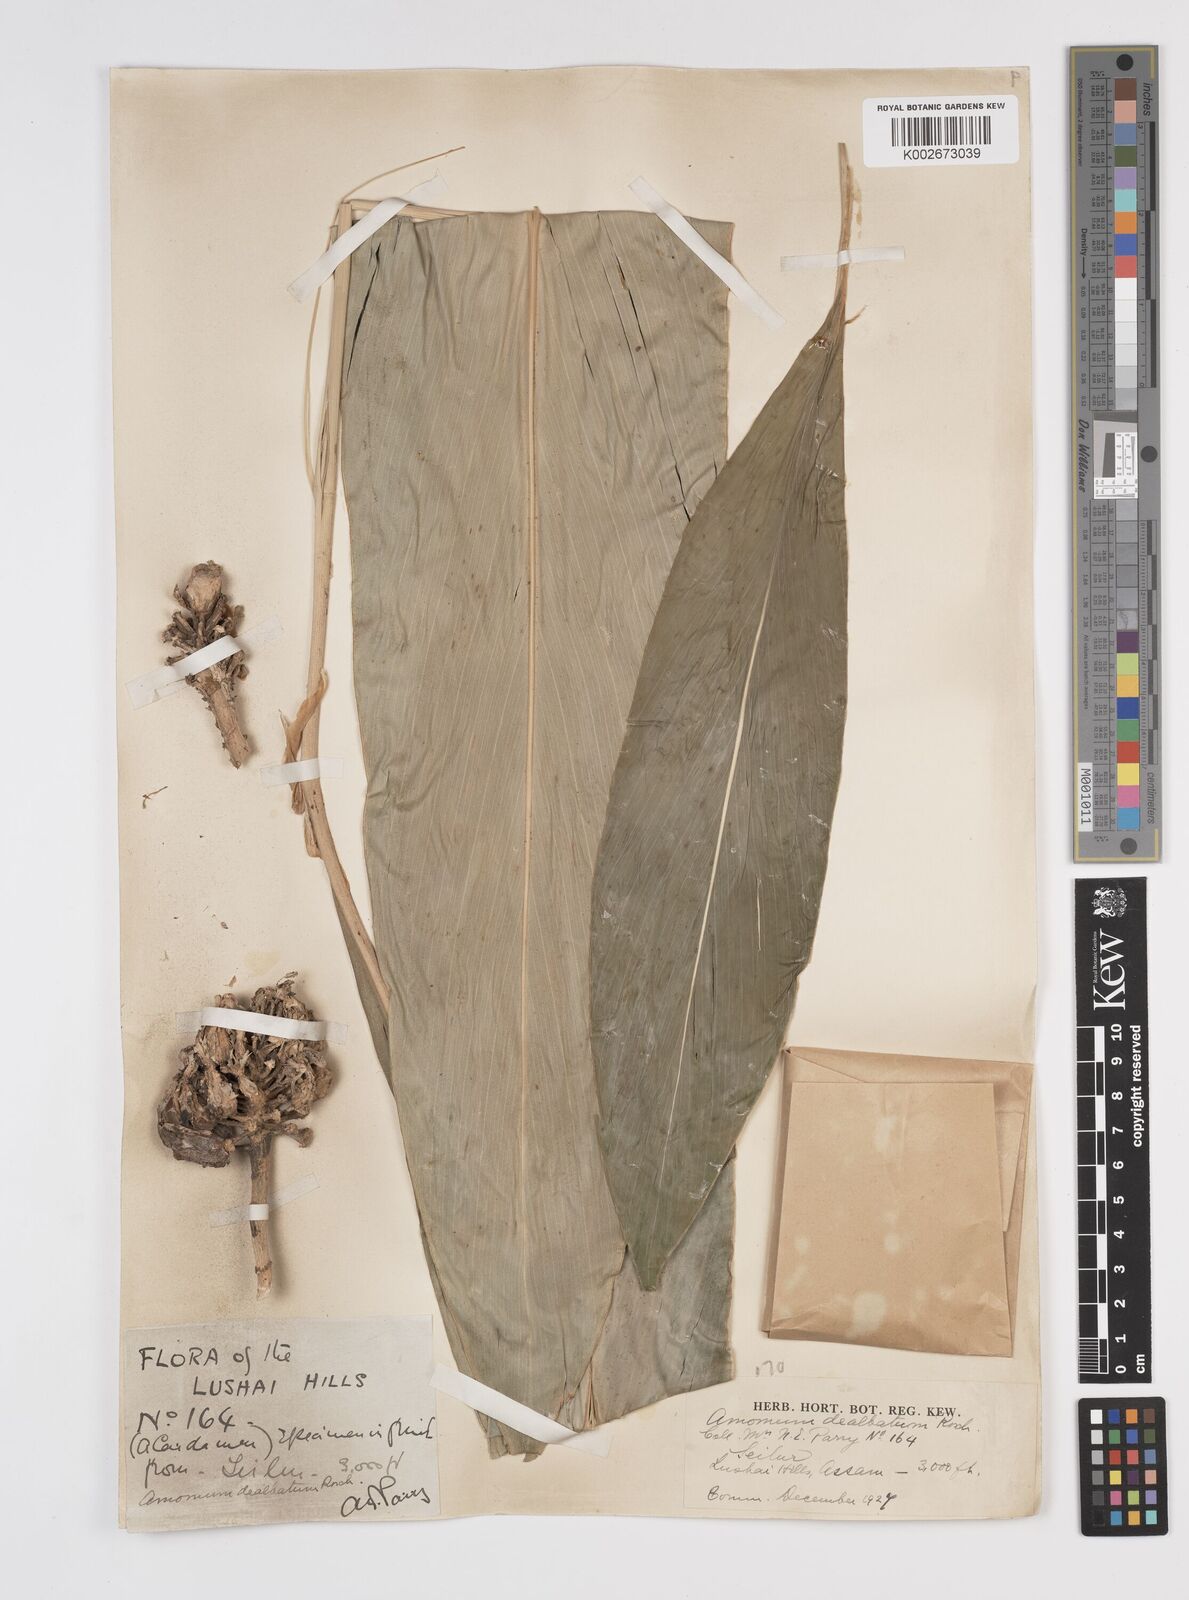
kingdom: Plantae
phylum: Tracheophyta
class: Liliopsida
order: Zingiberales
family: Zingiberaceae
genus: Amomum
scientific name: Amomum dealbatum
